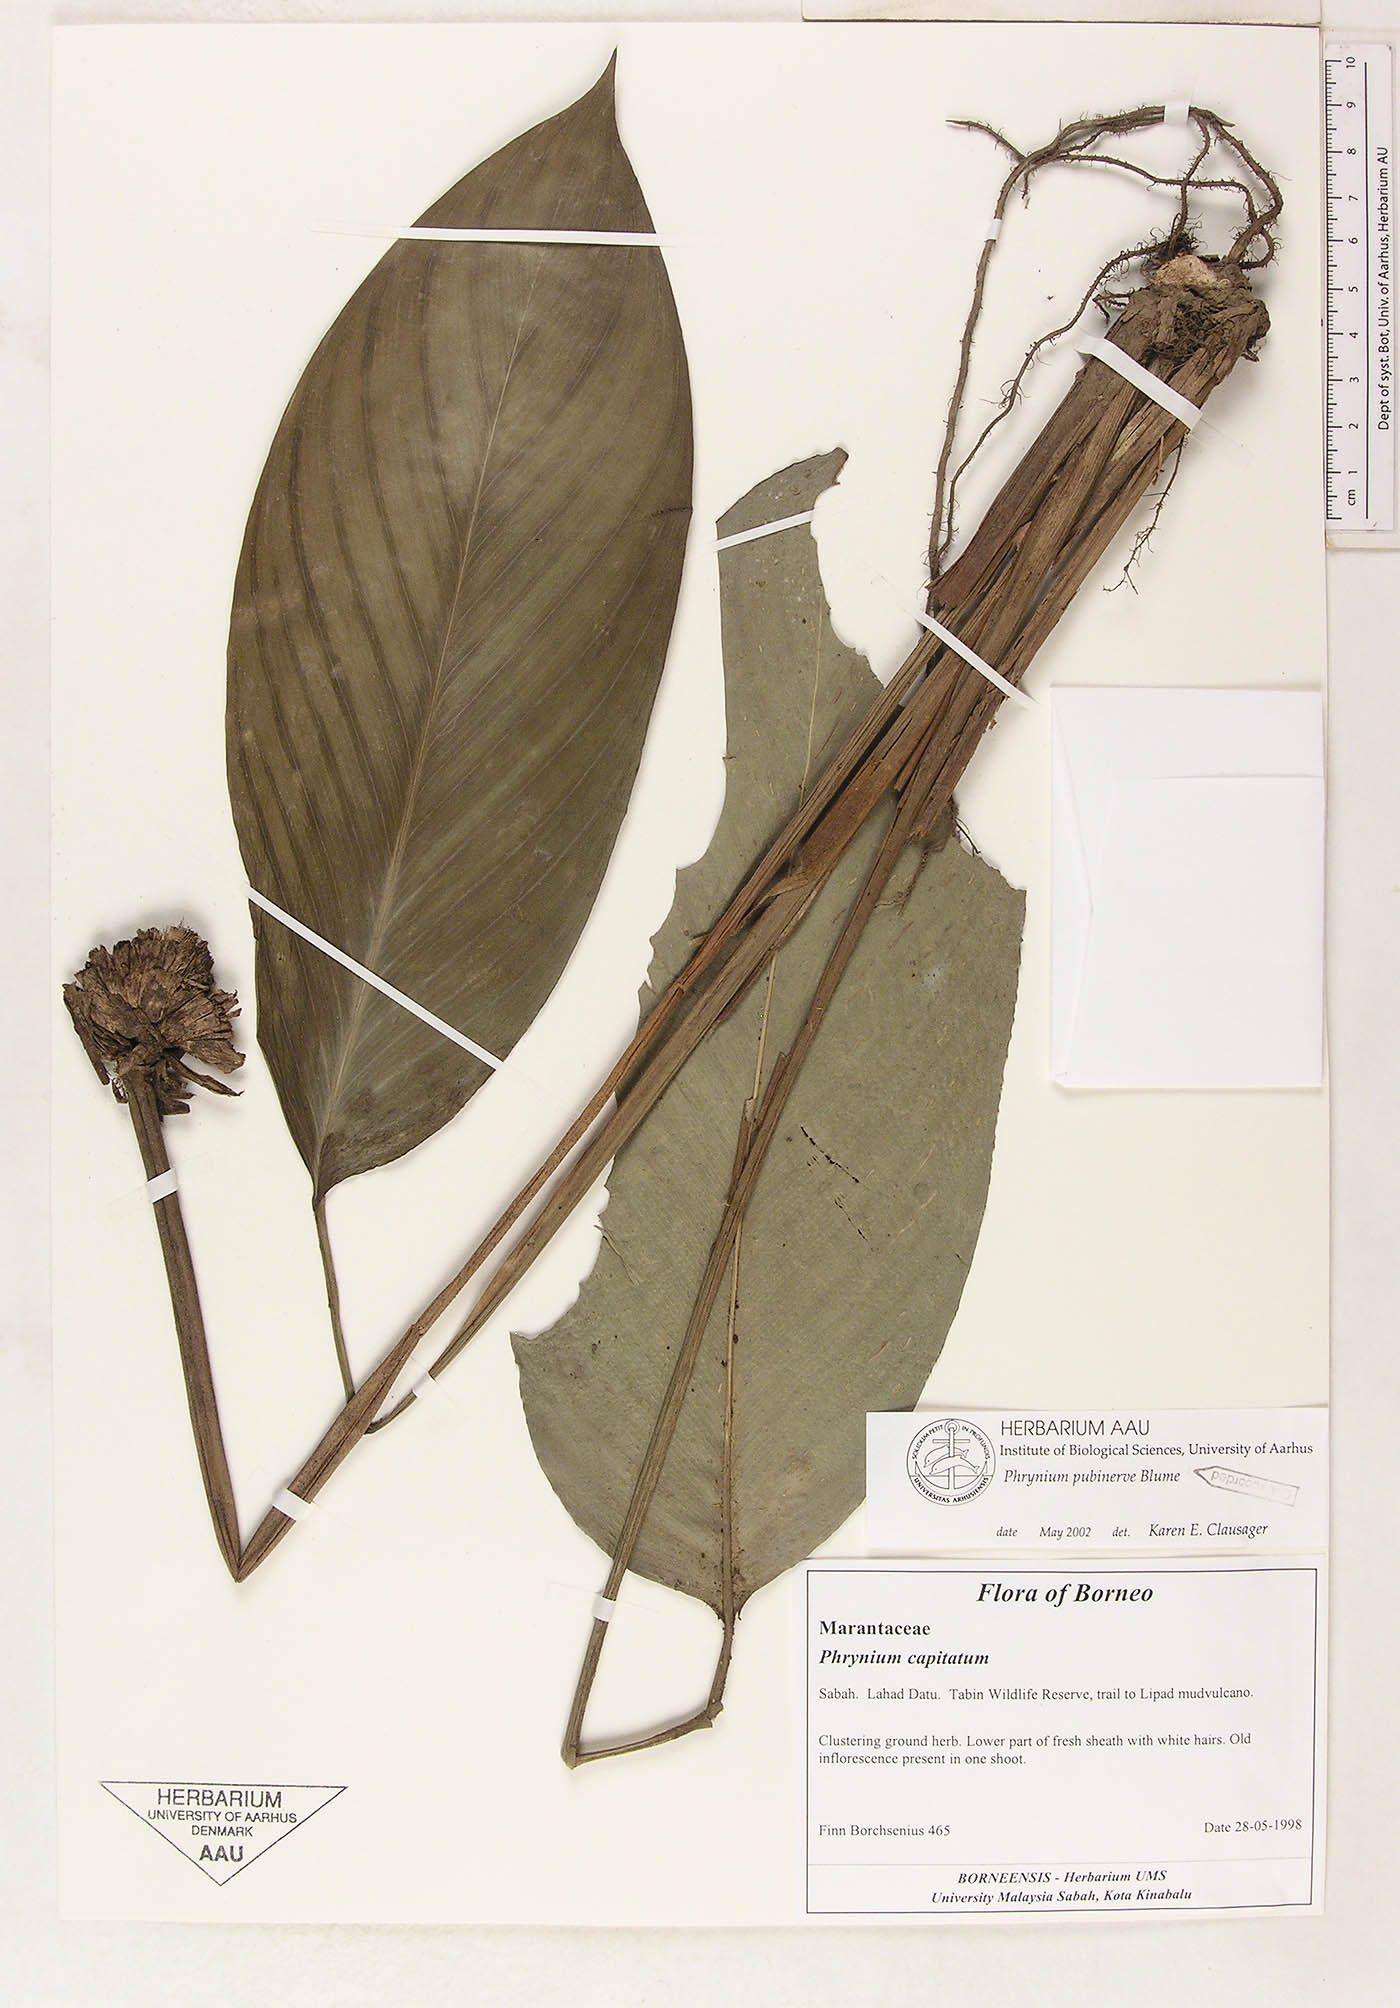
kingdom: Plantae
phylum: Tracheophyta
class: Liliopsida
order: Zingiberales
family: Marantaceae
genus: Phrynium
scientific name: Phrynium pubinerve
